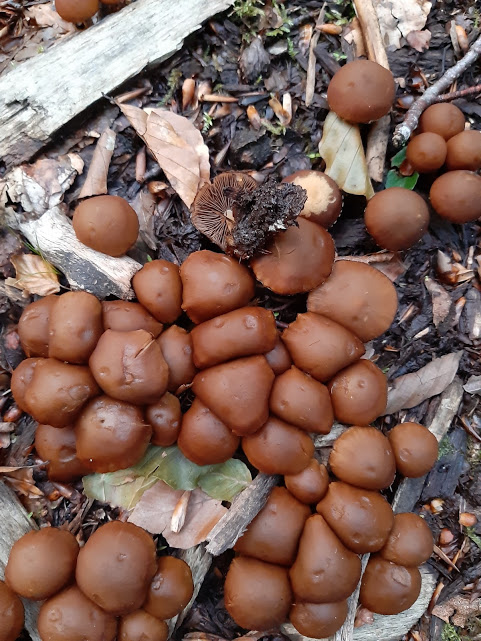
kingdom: Fungi
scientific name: Fungi
